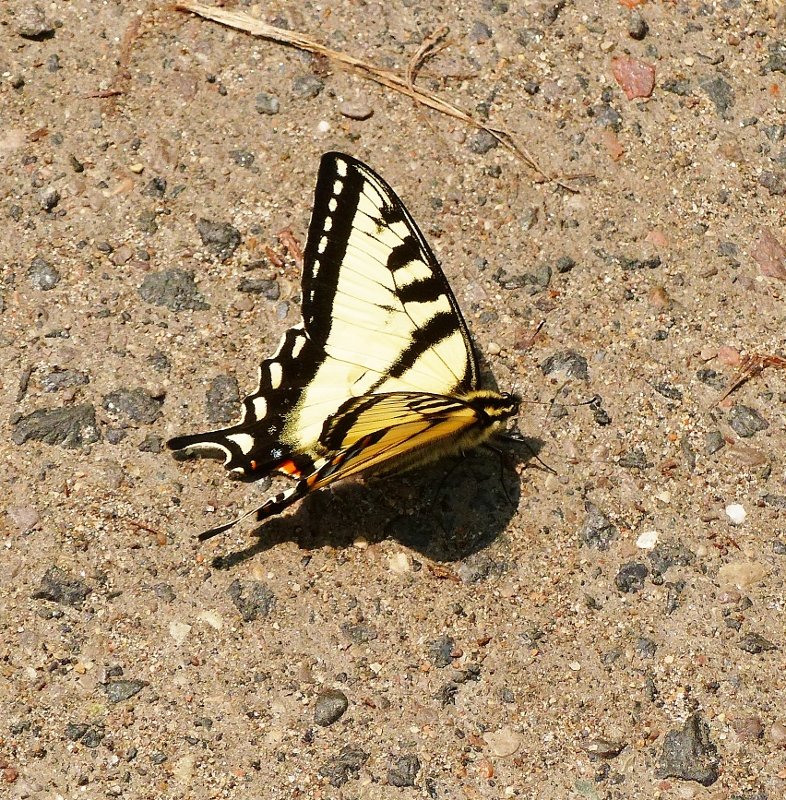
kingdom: Animalia
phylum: Arthropoda
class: Insecta
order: Lepidoptera
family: Papilionidae
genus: Pterourus
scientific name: Pterourus canadensis
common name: Canadian Tiger Swallowtail
